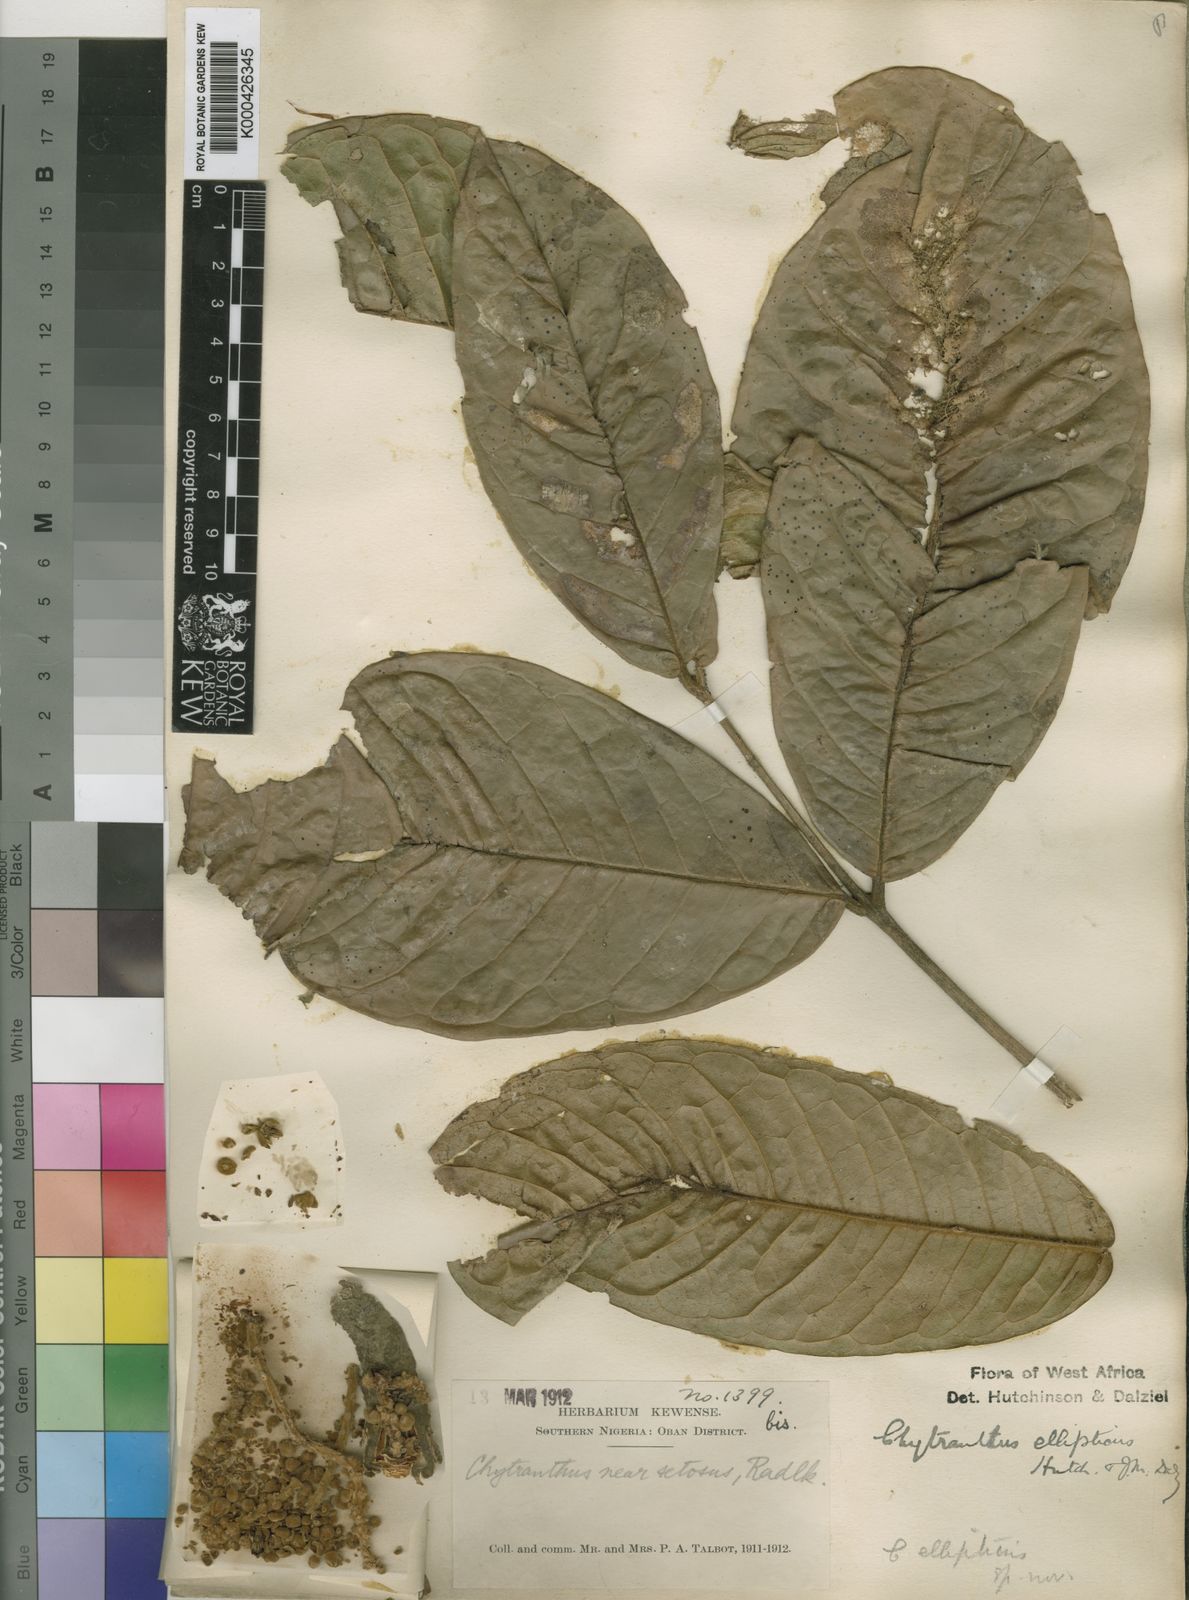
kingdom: Plantae
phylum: Tracheophyta
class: Magnoliopsida
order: Sapindales
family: Sapindaceae
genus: Chytranthus
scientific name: Chytranthus ellipticus
